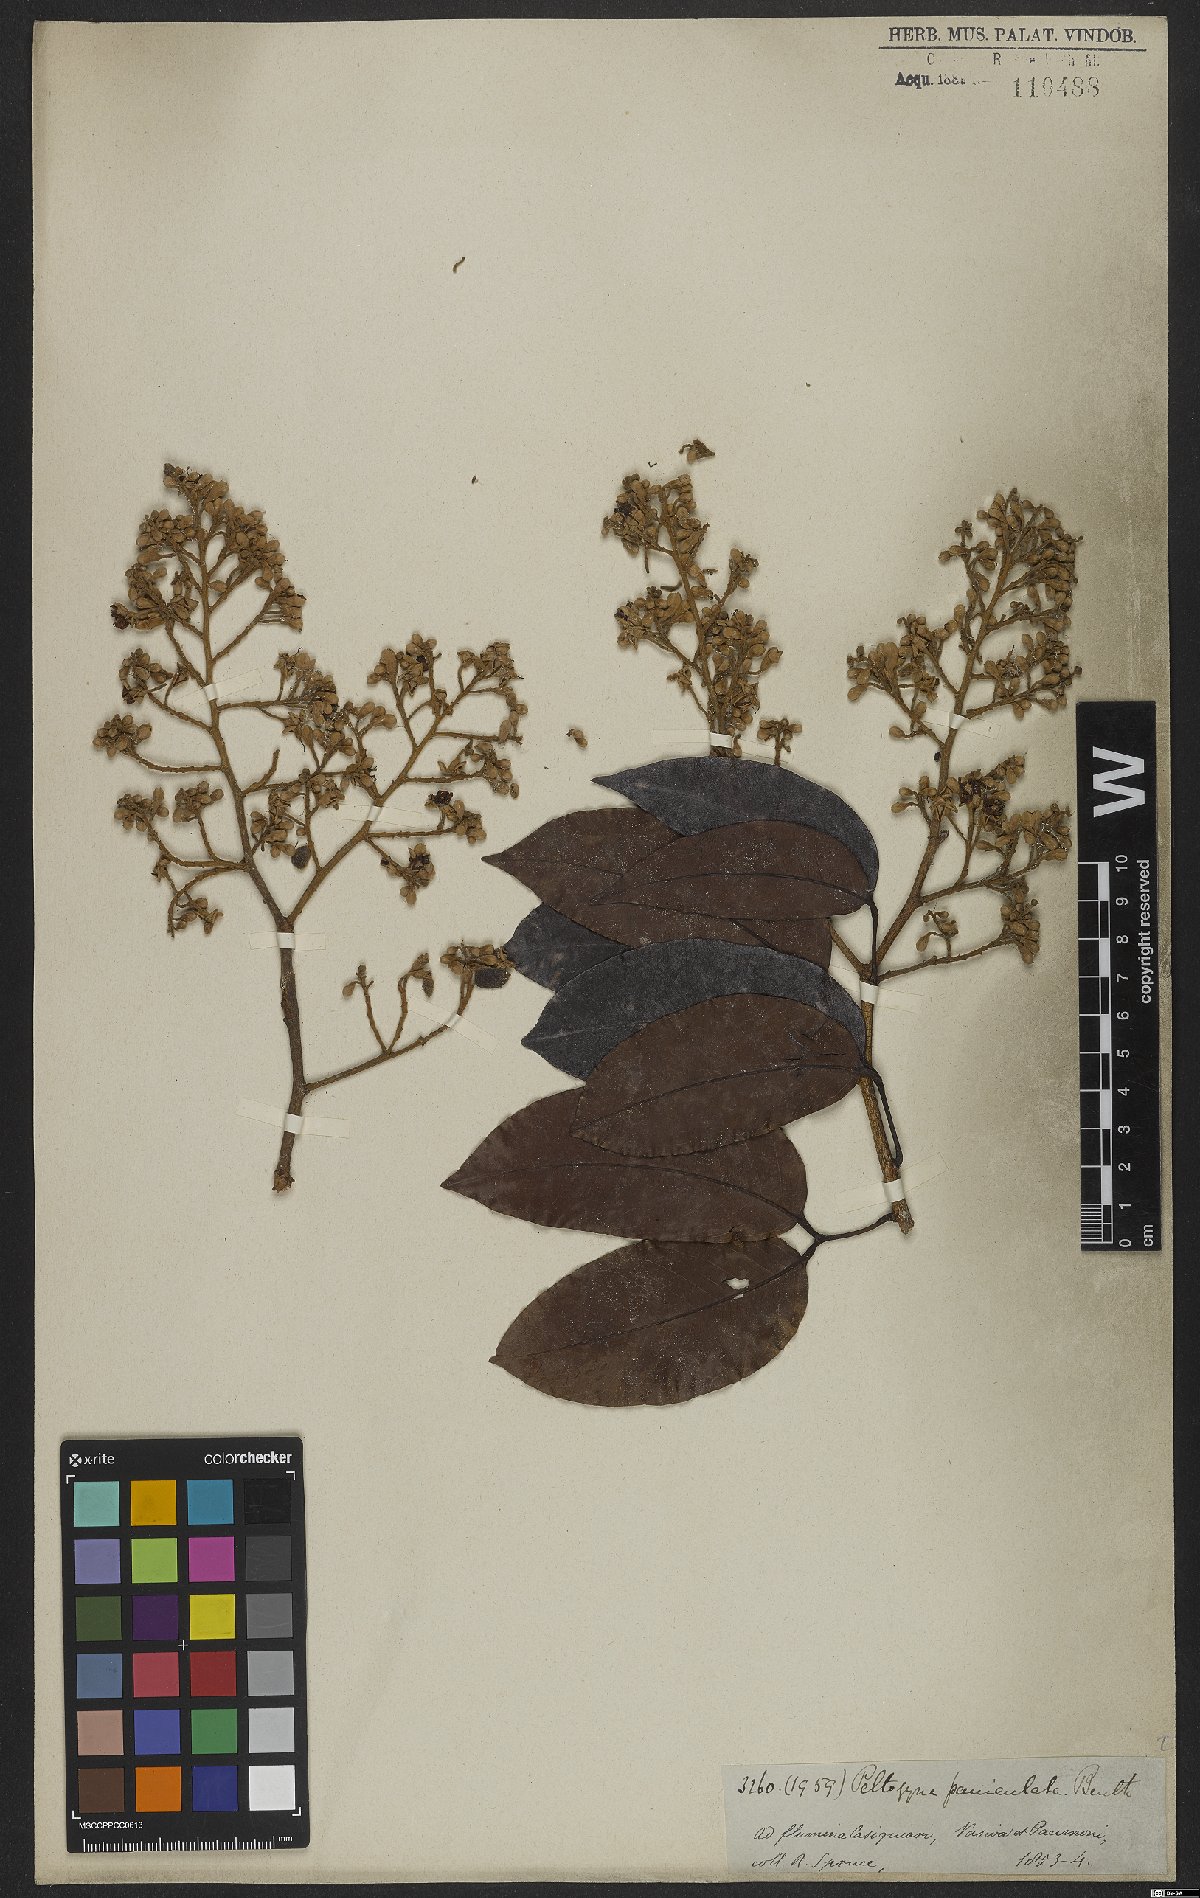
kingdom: Plantae
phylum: Tracheophyta
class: Magnoliopsida
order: Fabales
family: Fabaceae
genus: Peltogyne
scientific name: Peltogyne paniculata
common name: Purpleheart
